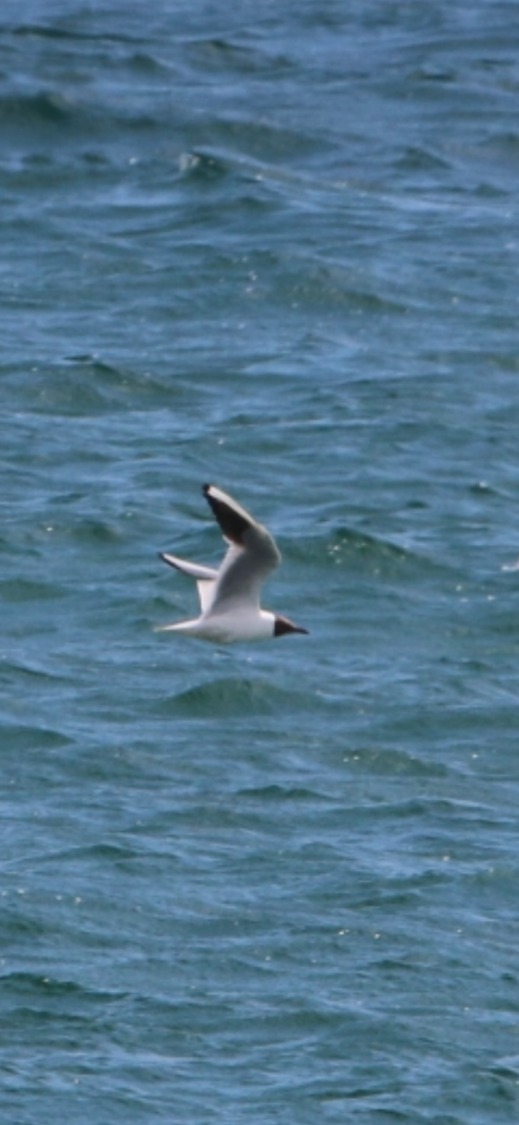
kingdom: Animalia
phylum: Chordata
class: Aves
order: Charadriiformes
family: Laridae
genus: Chroicocephalus
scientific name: Chroicocephalus ridibundus
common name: Hættemåge
